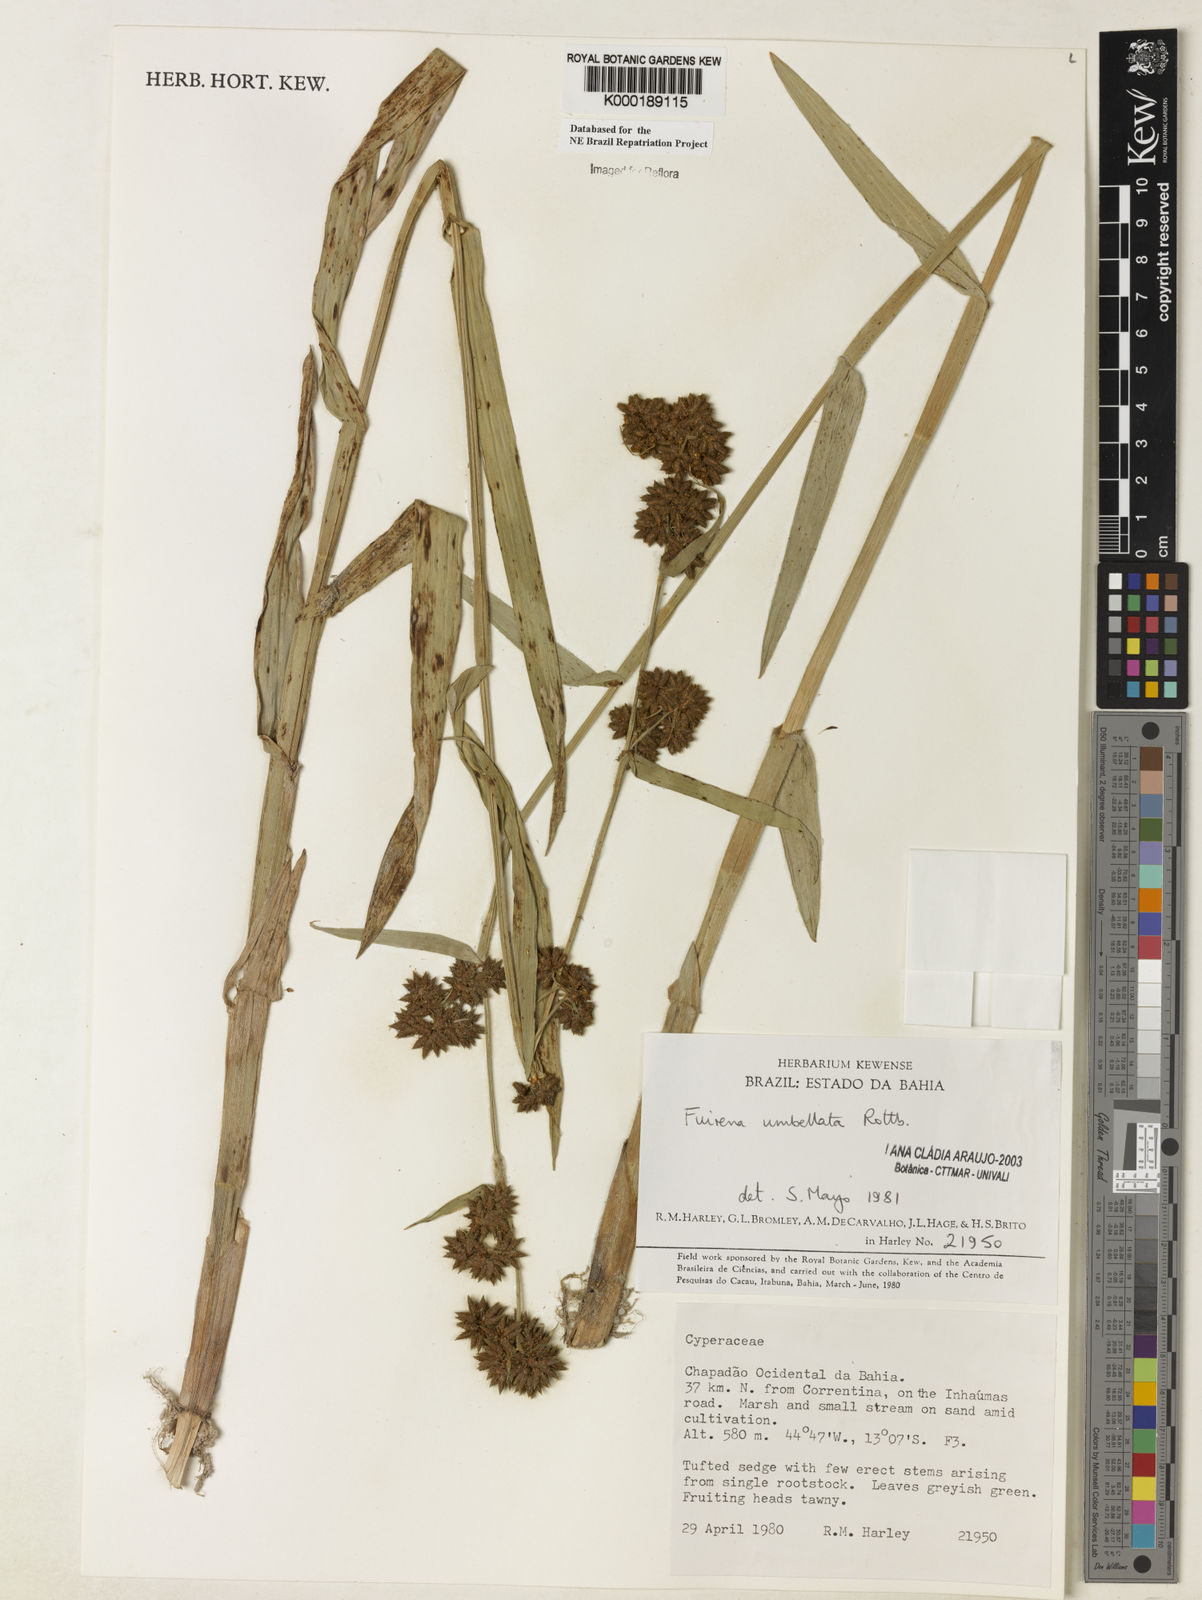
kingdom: Plantae
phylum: Tracheophyta
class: Liliopsida
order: Poales
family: Cyperaceae
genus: Fuirena
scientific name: Fuirena umbellata
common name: Yefen
